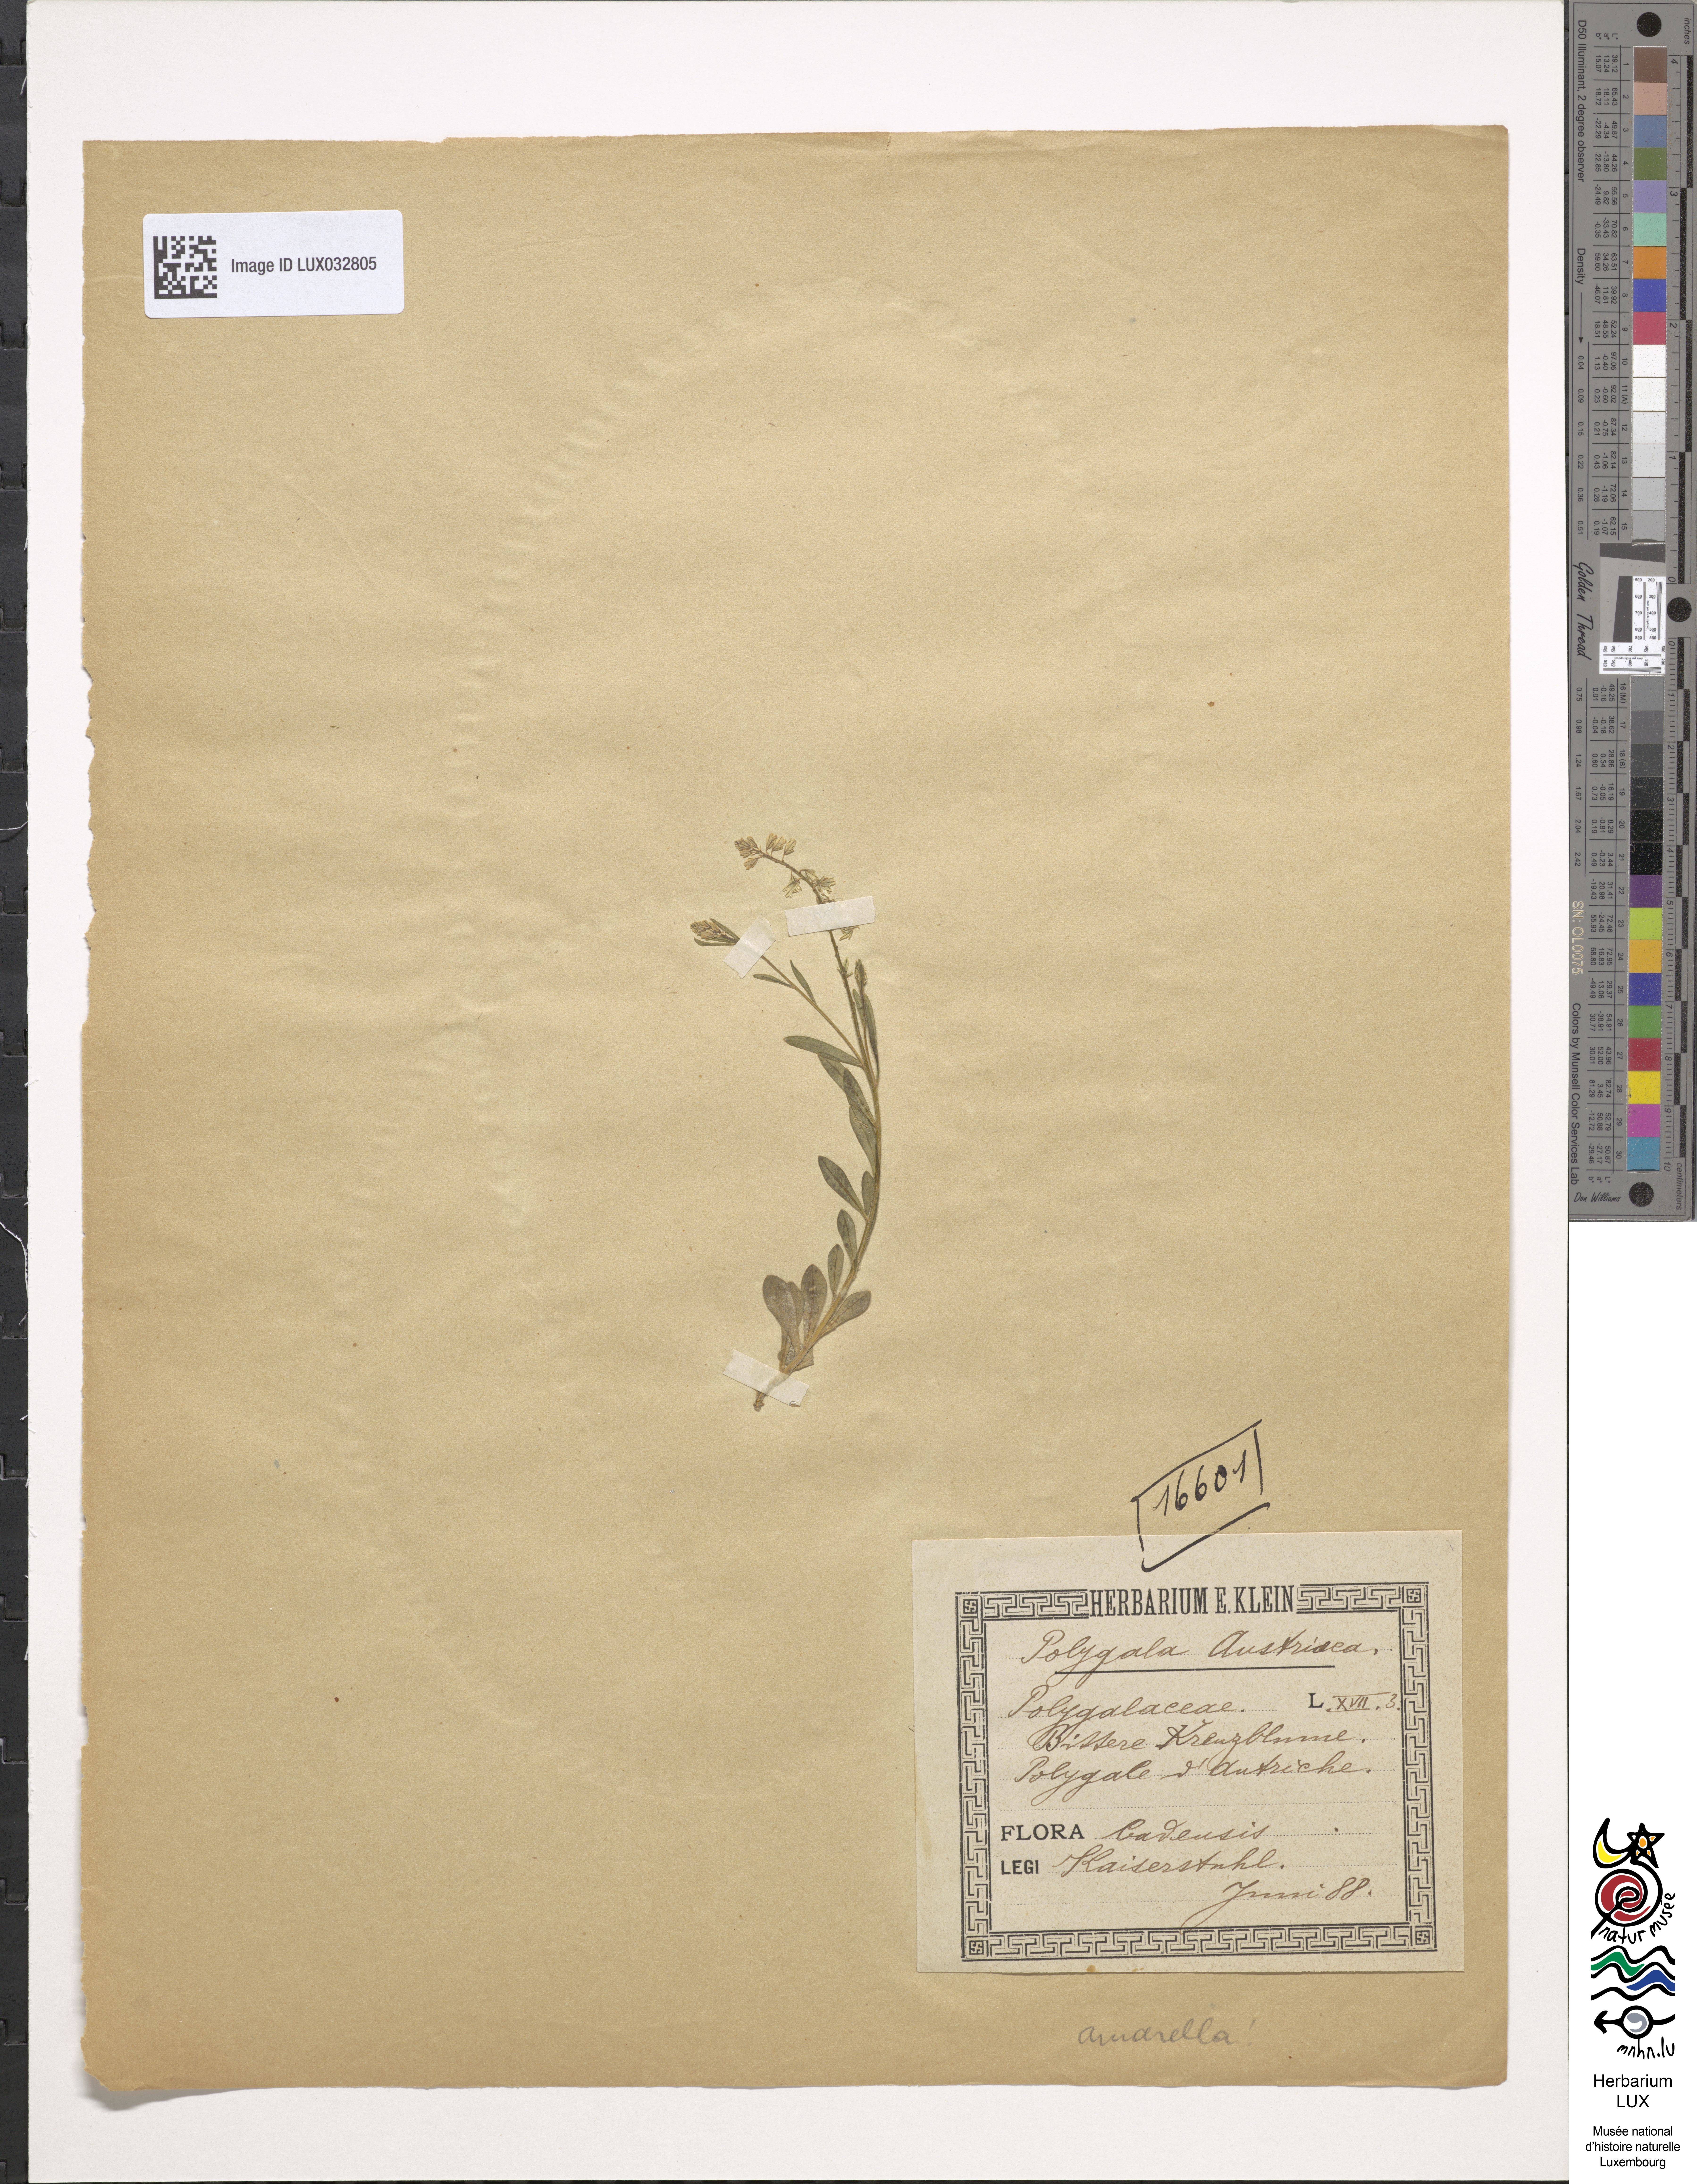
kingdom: Plantae
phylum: Tracheophyta
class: Magnoliopsida
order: Fabales
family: Polygalaceae
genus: Polygala
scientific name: Polygala amarella
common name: Dwarf milkwort
